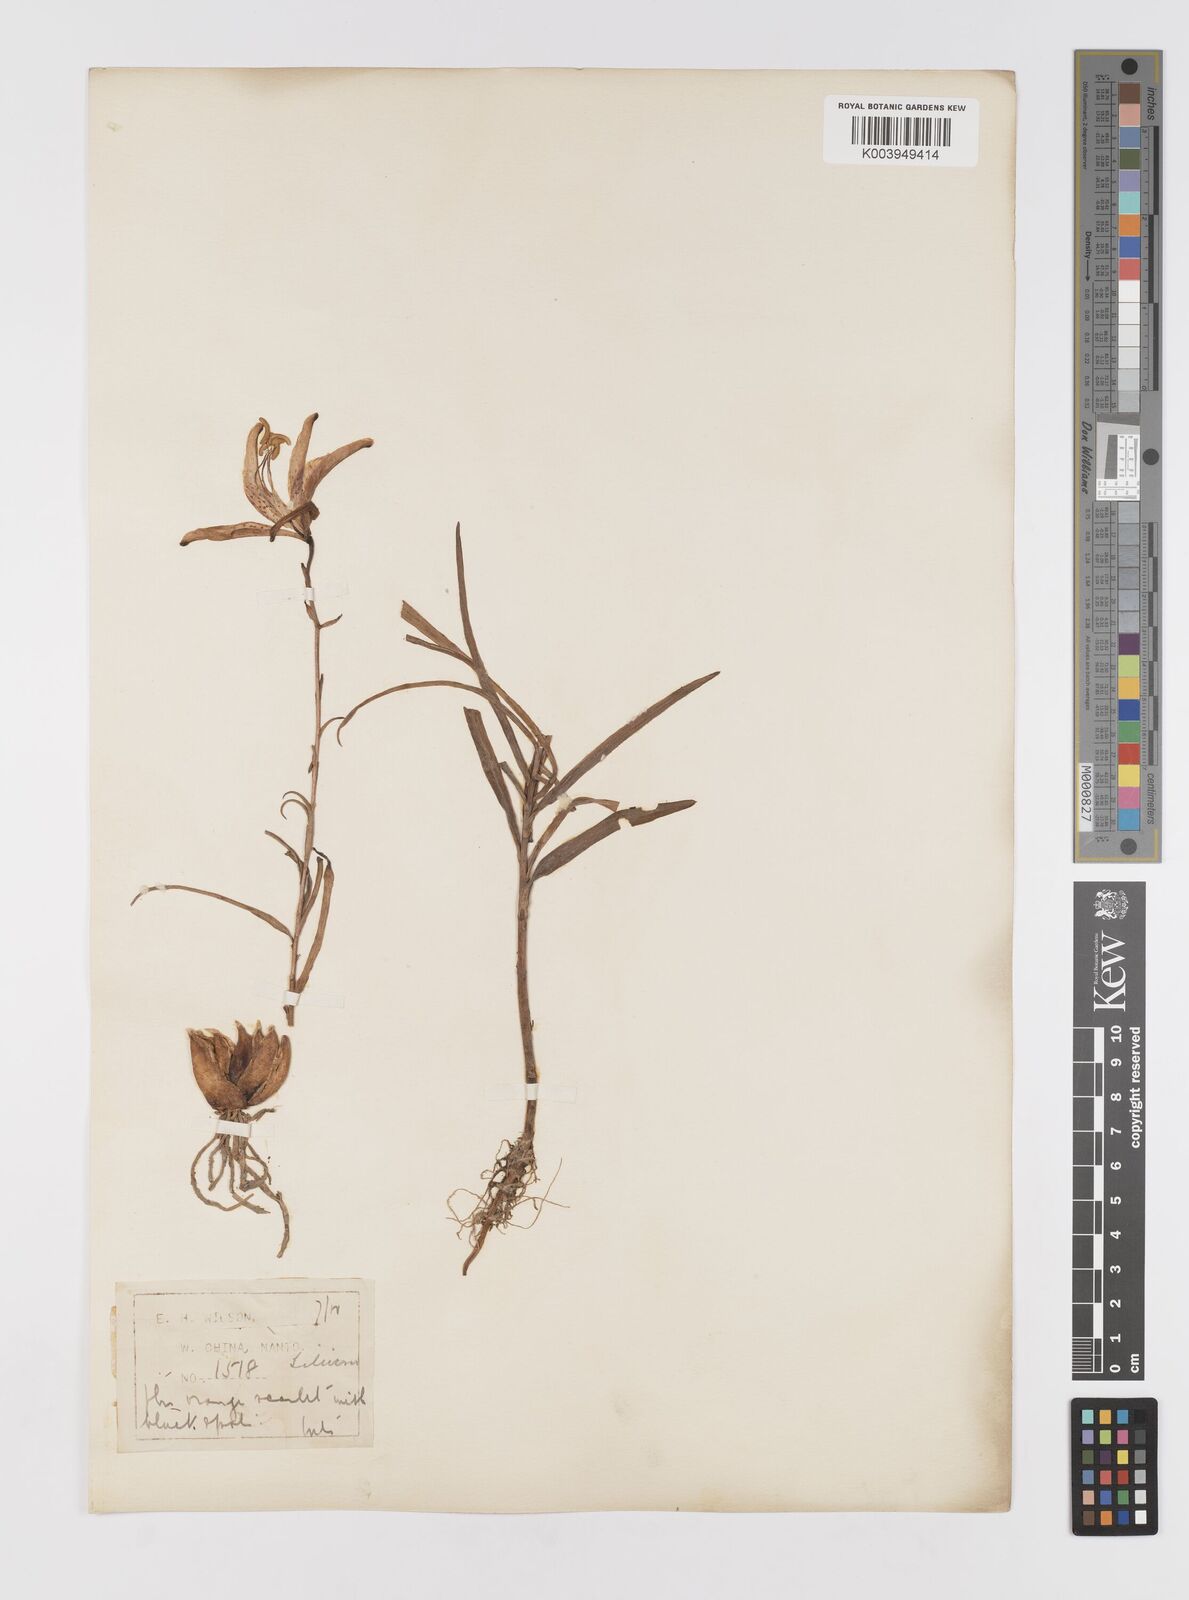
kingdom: Plantae
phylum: Tracheophyta
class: Liliopsida
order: Liliales
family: Liliaceae
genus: Lilium
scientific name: Lilium davidii
